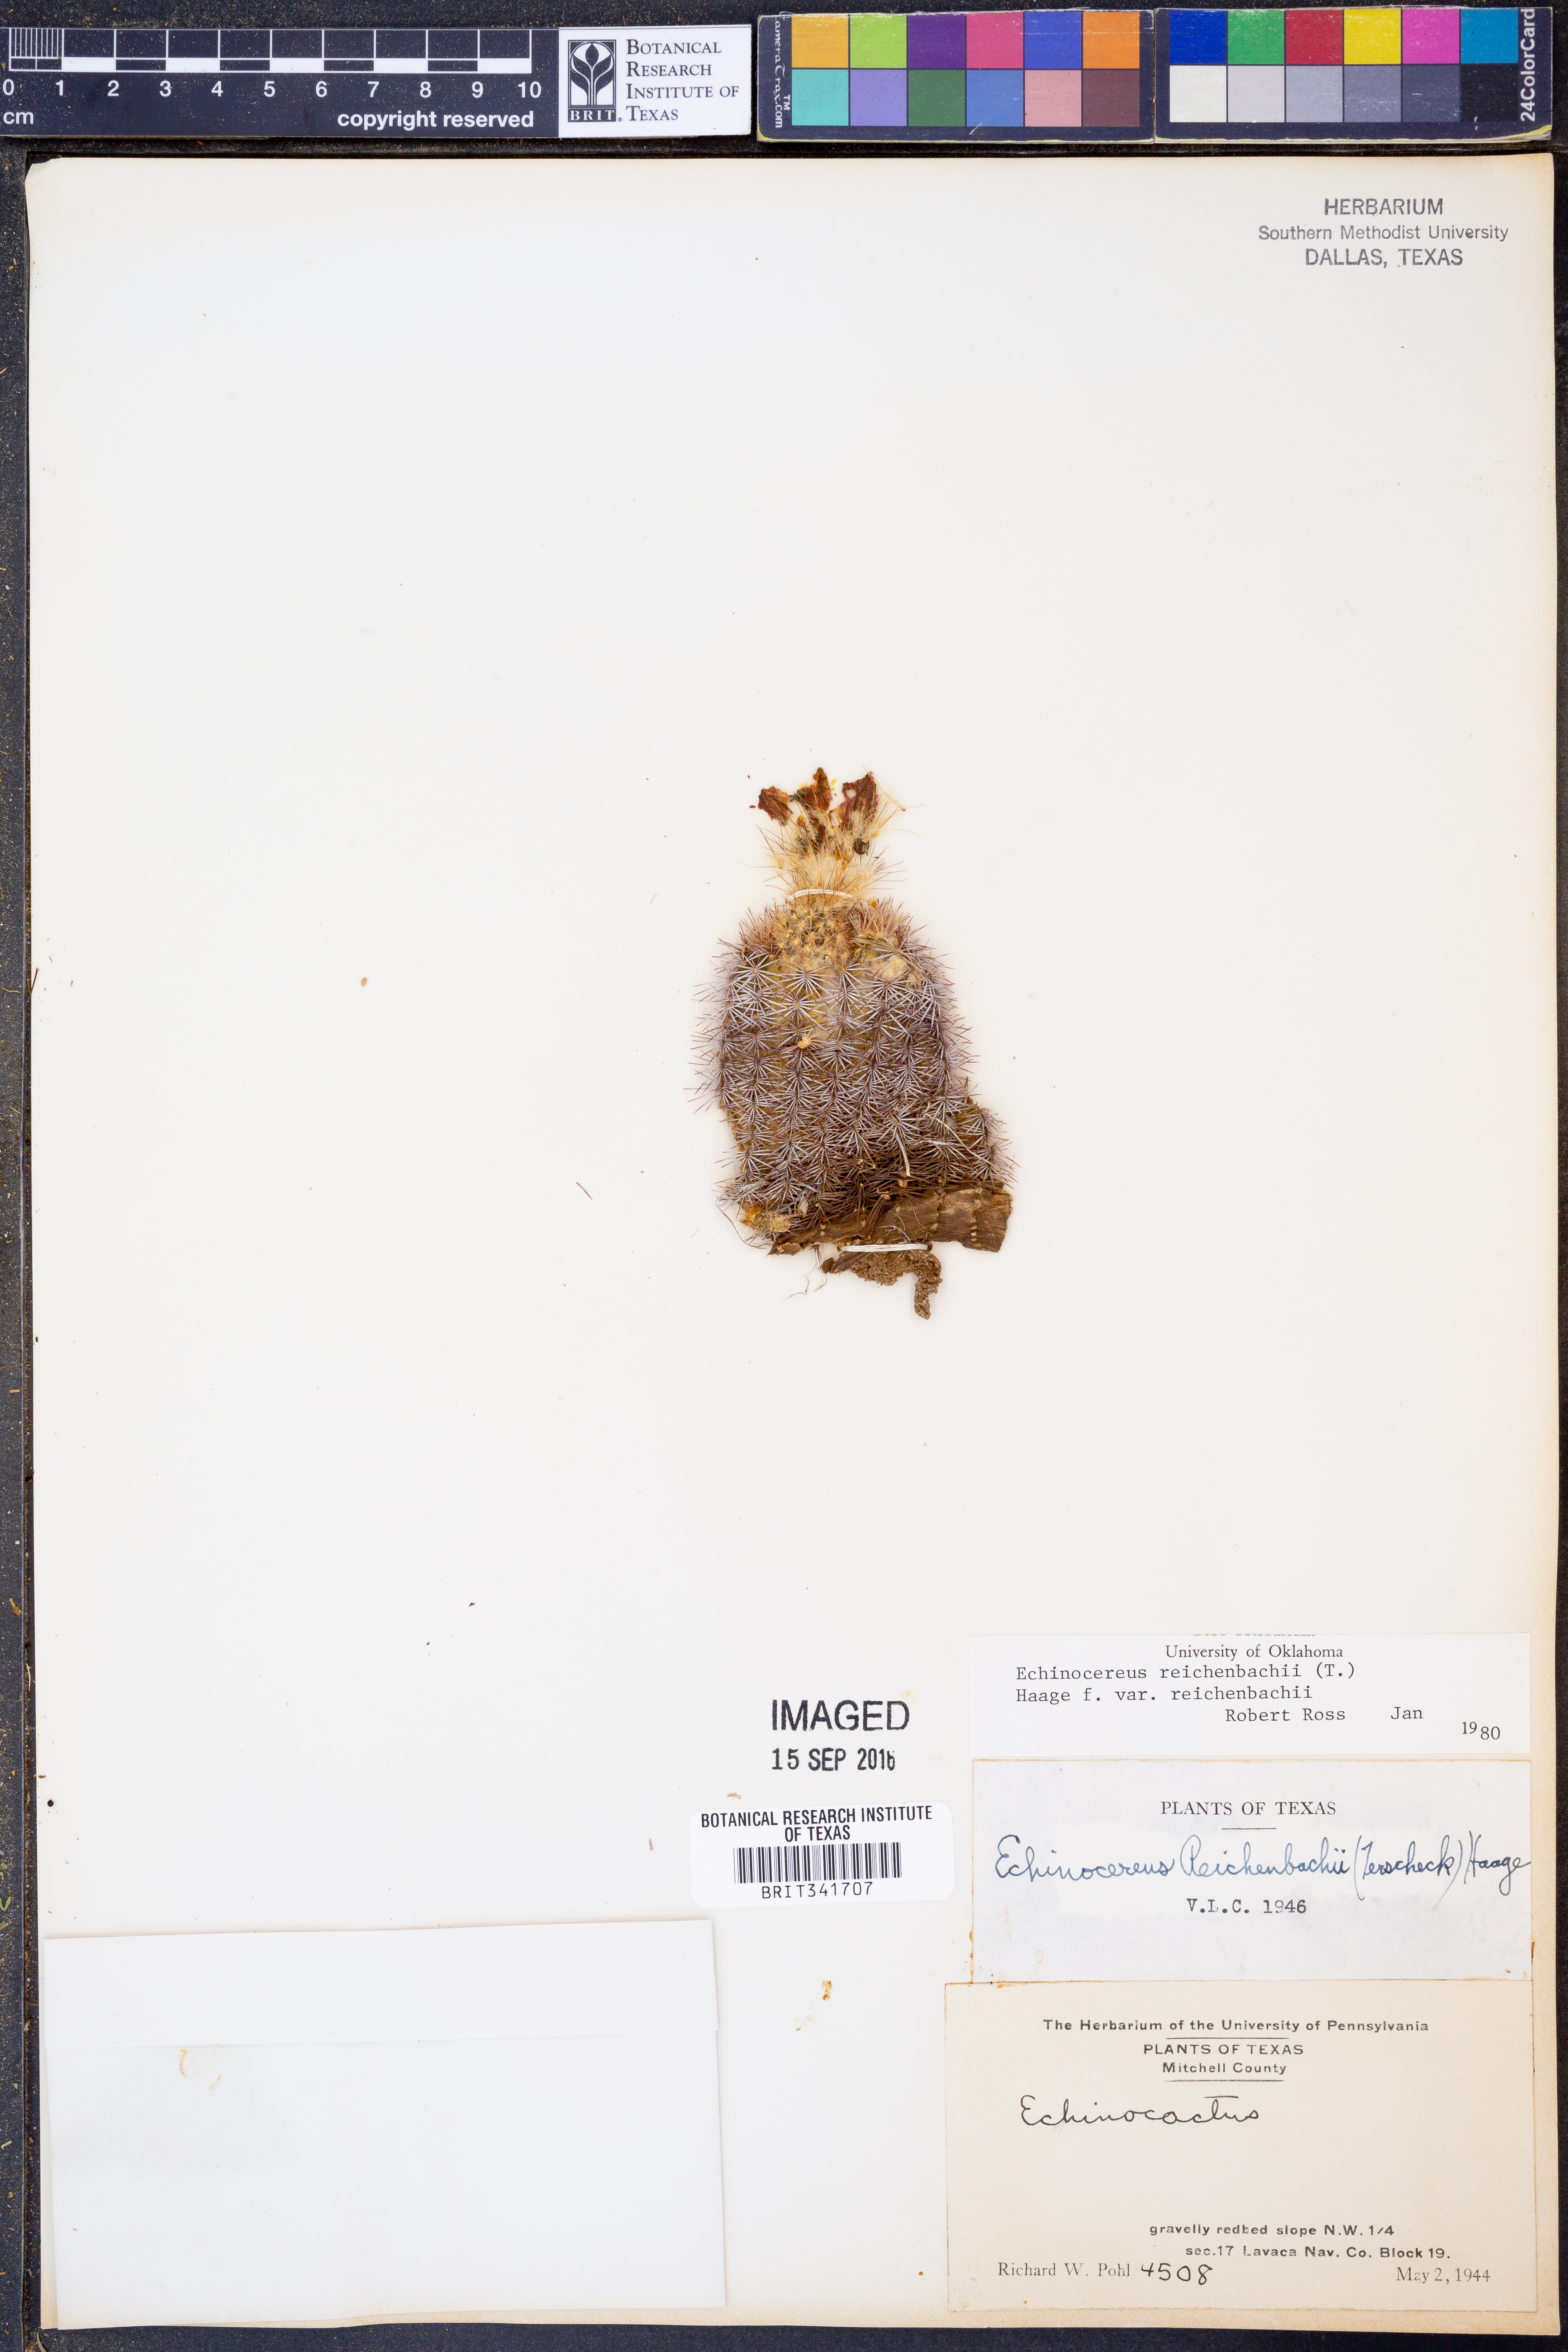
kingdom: Plantae
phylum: Tracheophyta
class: Magnoliopsida
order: Caryophyllales
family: Cactaceae
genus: Echinocereus
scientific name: Echinocereus reichenbachii
